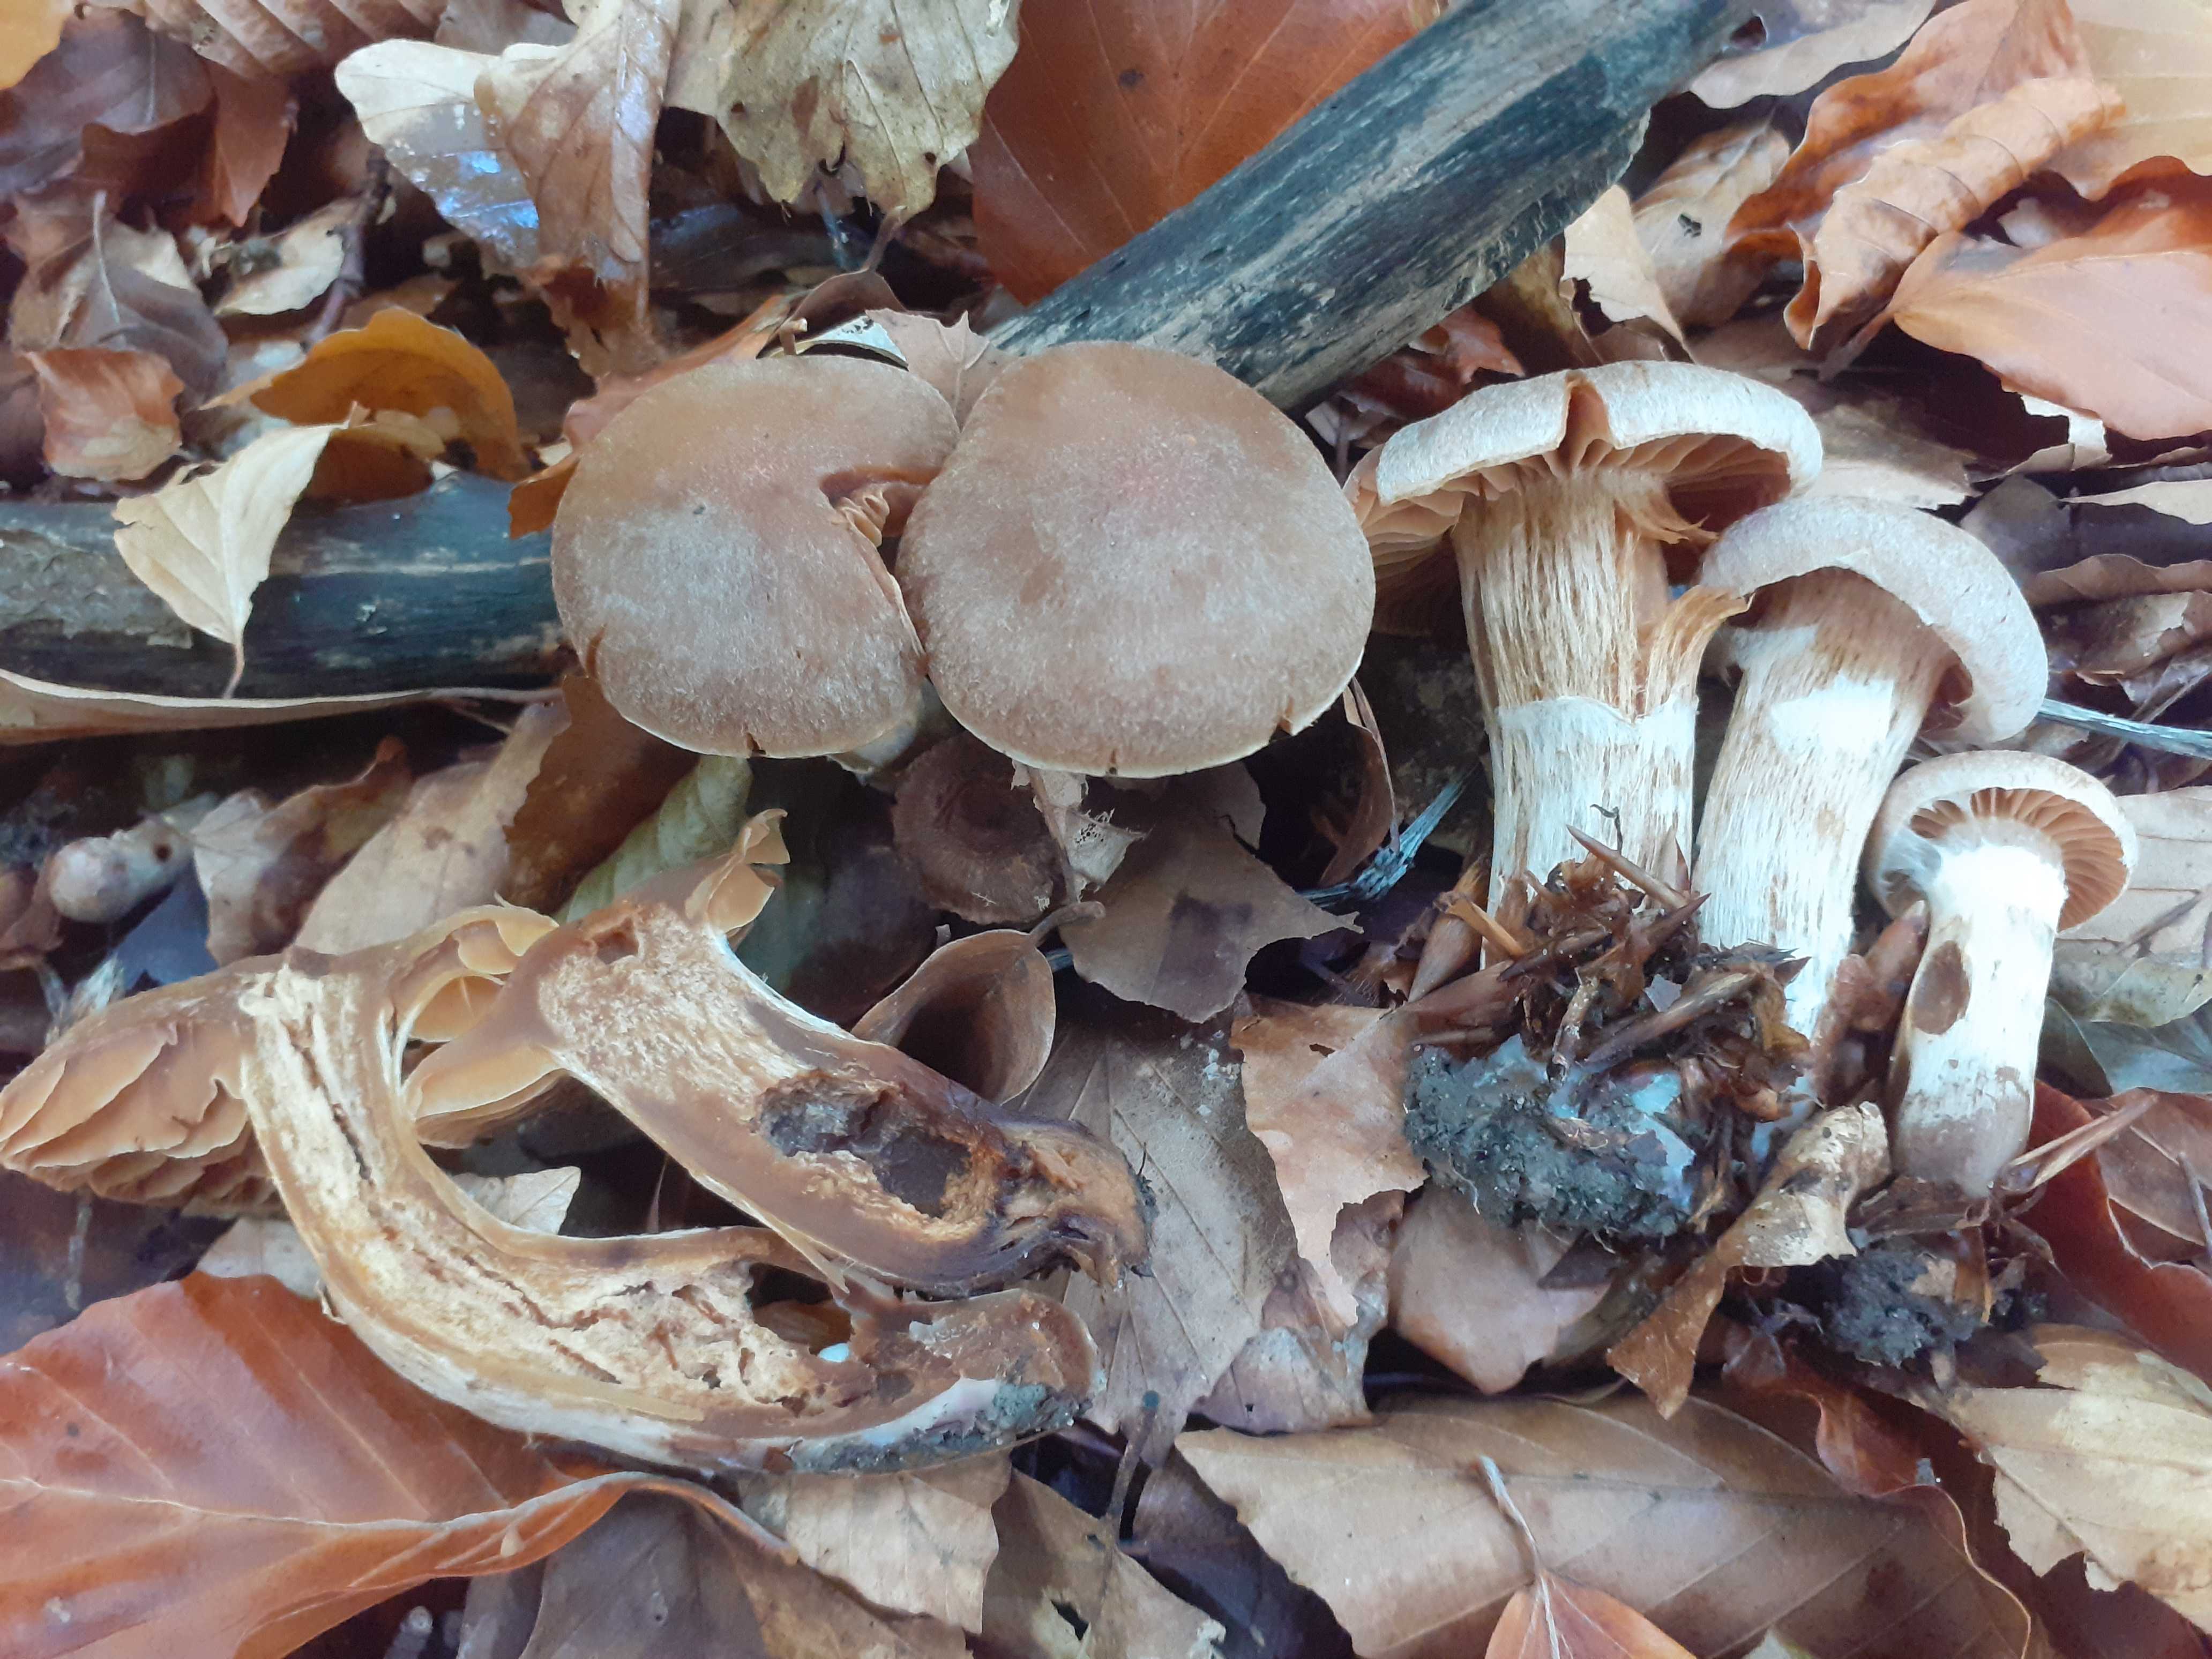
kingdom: Fungi
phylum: Basidiomycota
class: Agaricomycetes
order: Agaricales
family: Cortinariaceae
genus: Cortinarius
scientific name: Cortinarius semiodoratus
